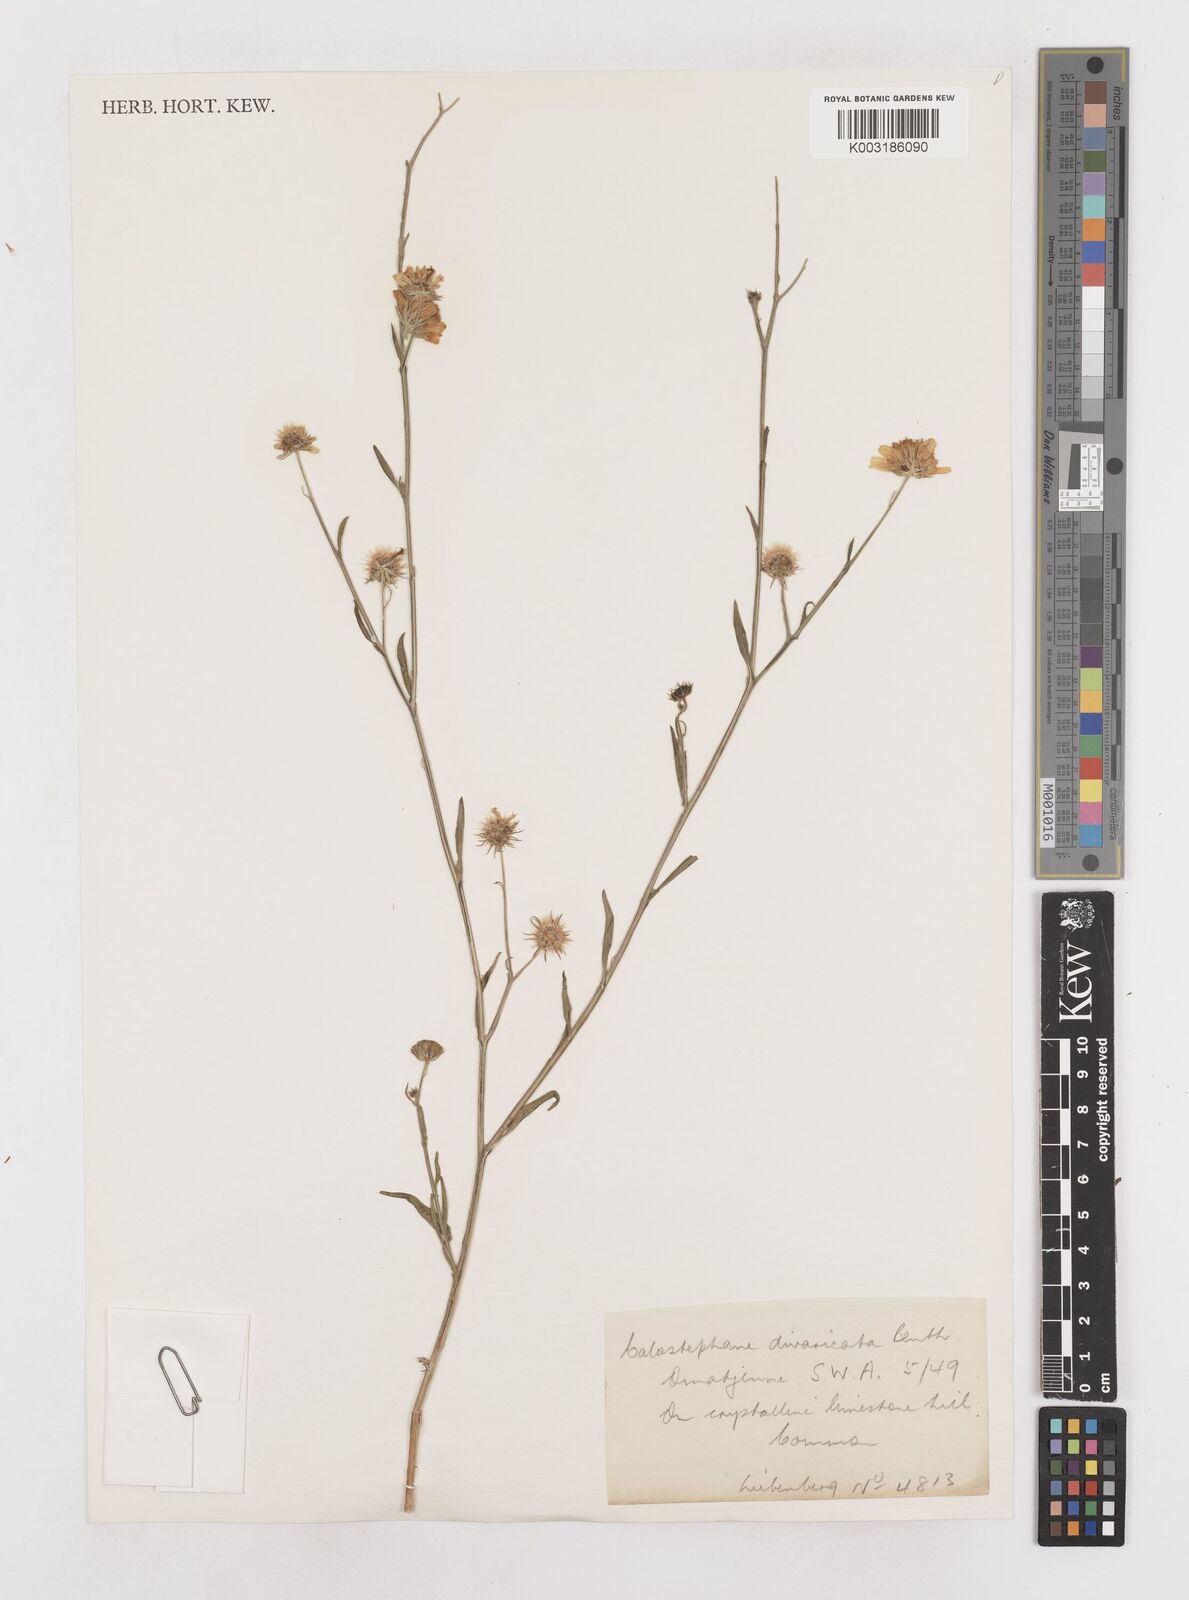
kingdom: Plantae
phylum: Tracheophyta
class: Magnoliopsida
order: Asterales
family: Asteraceae
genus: Calostephane
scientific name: Calostephane divaricata
